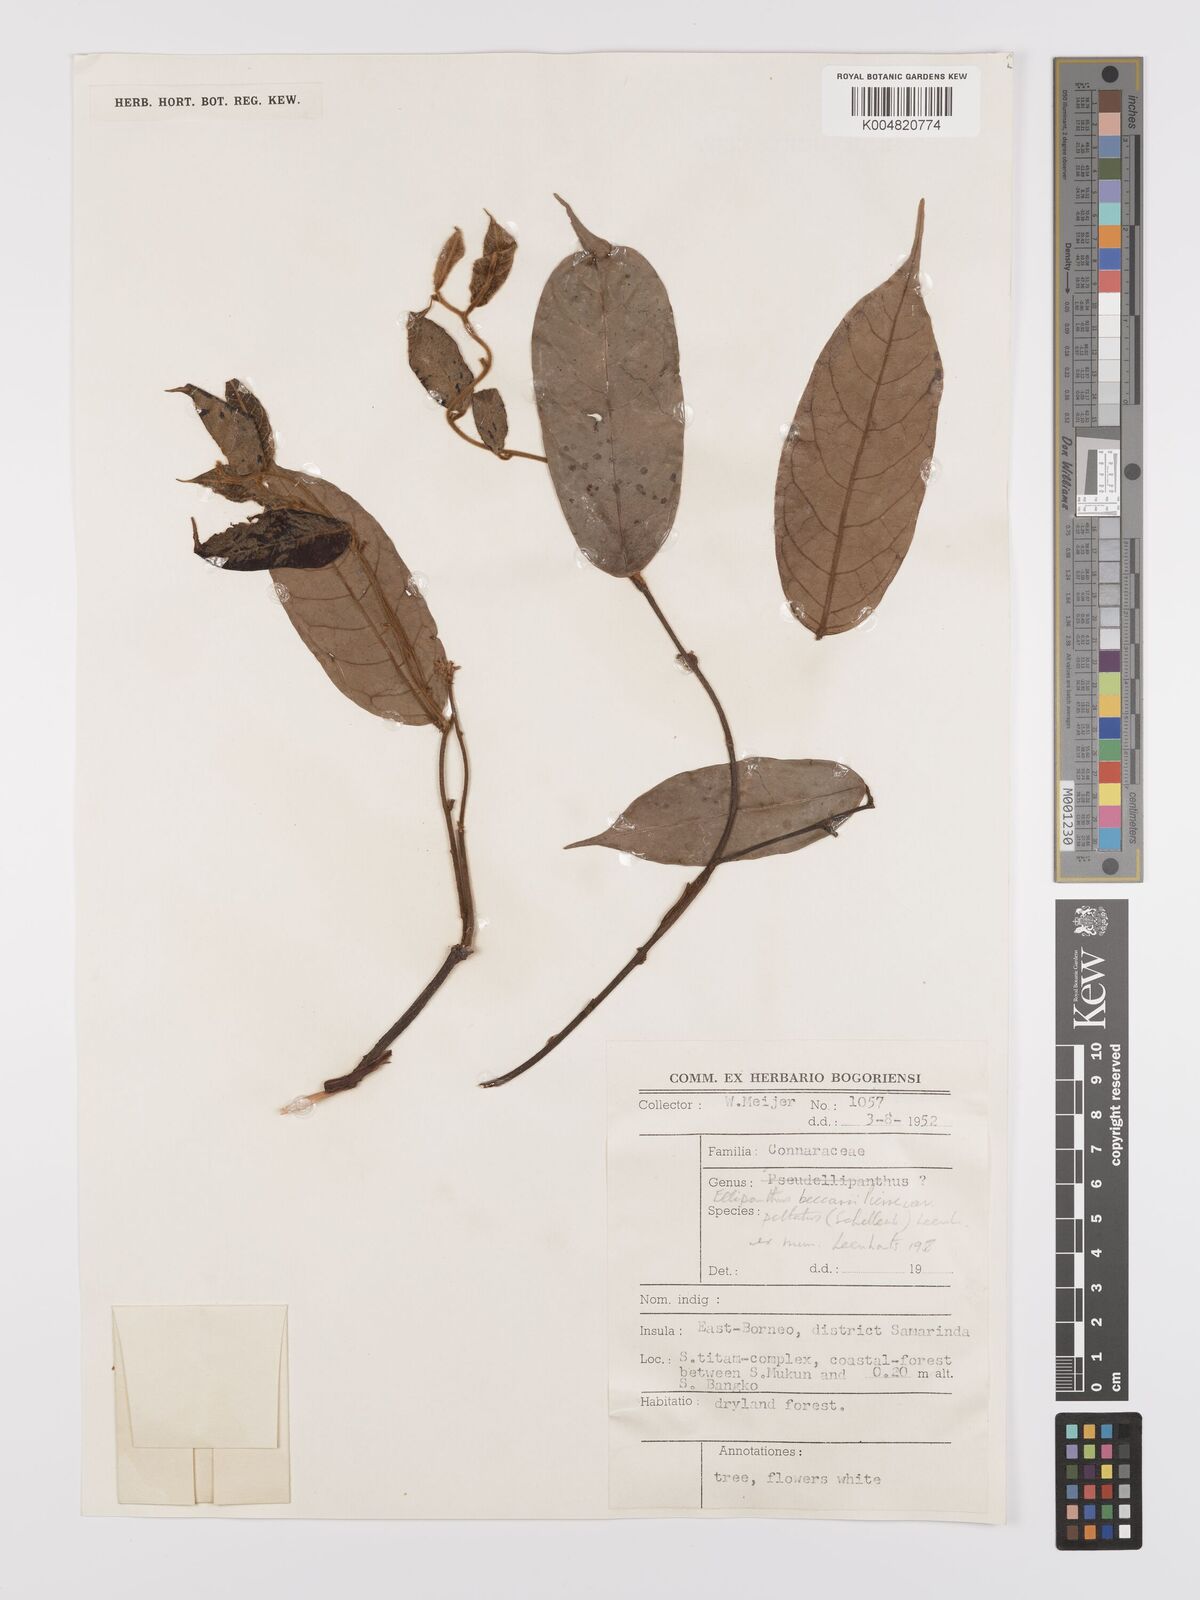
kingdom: Plantae
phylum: Tracheophyta
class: Magnoliopsida
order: Oxalidales
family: Connaraceae
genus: Ellipanthus
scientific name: Ellipanthus beccarii
